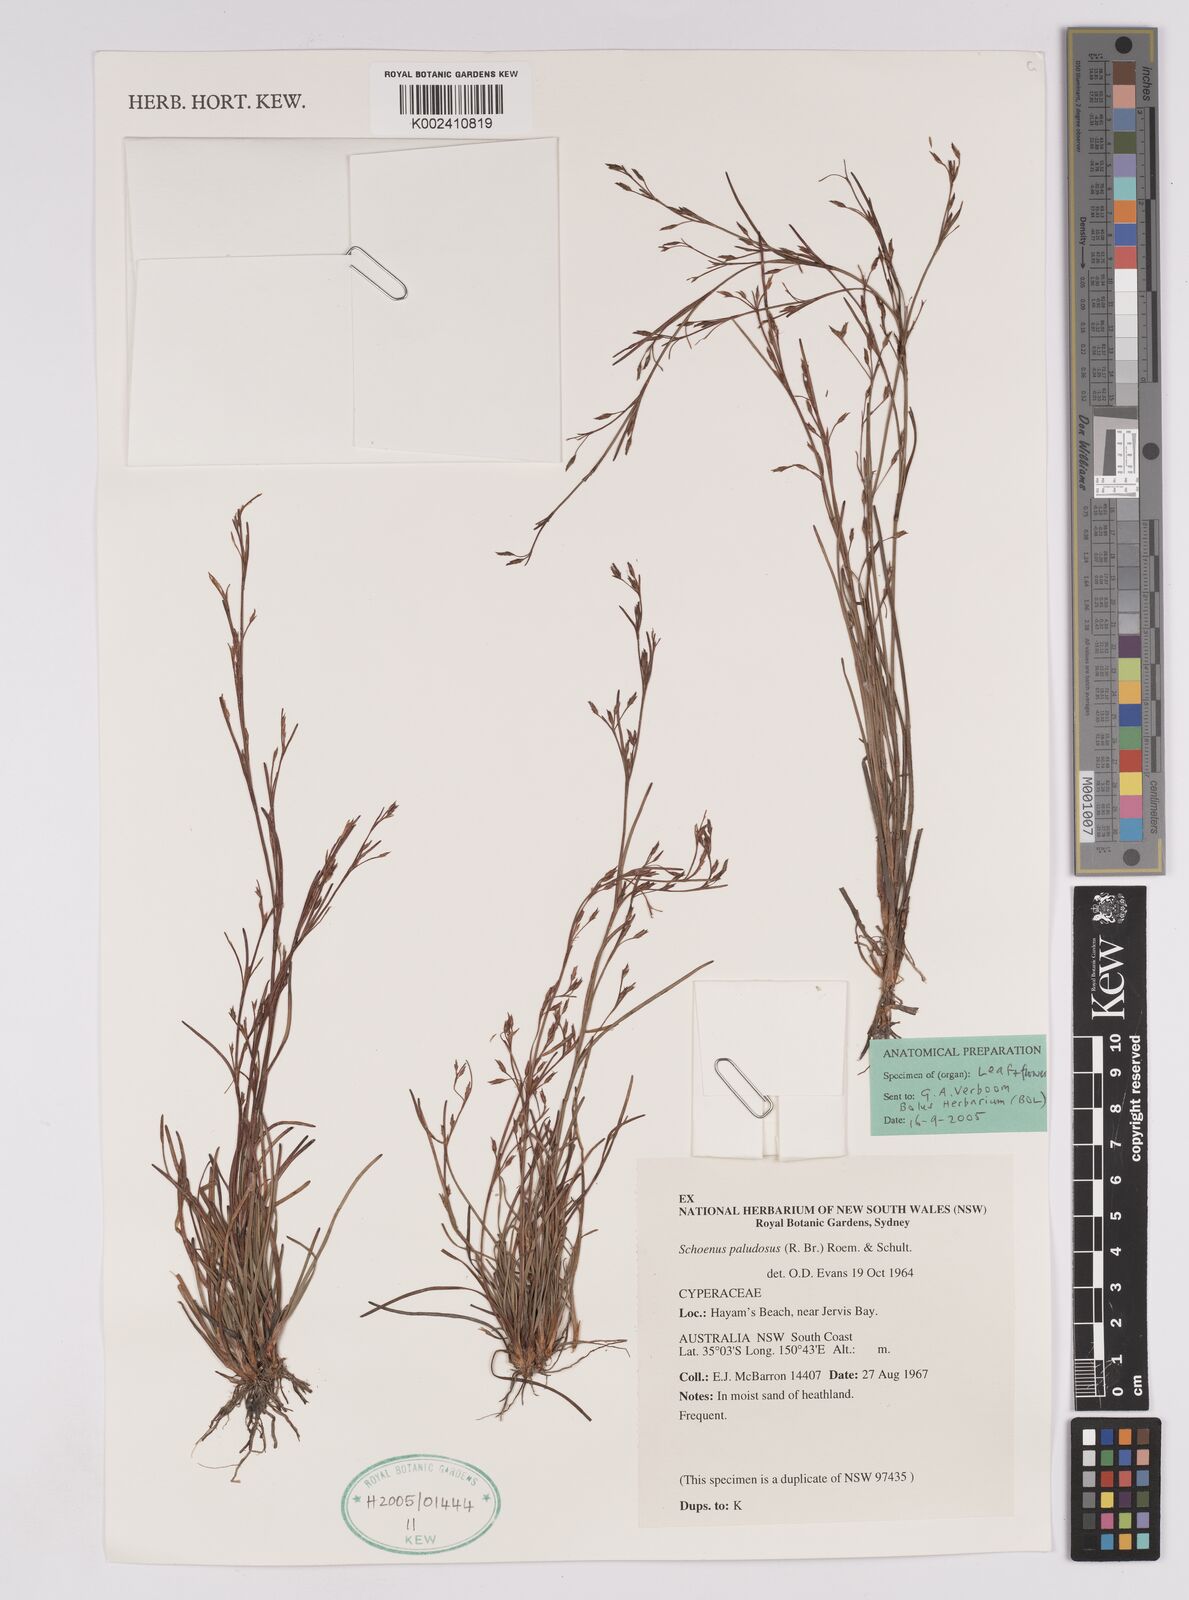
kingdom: Plantae
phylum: Tracheophyta
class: Liliopsida
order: Poales
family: Cyperaceae
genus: Anthelepis
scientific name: Anthelepis paludosa
